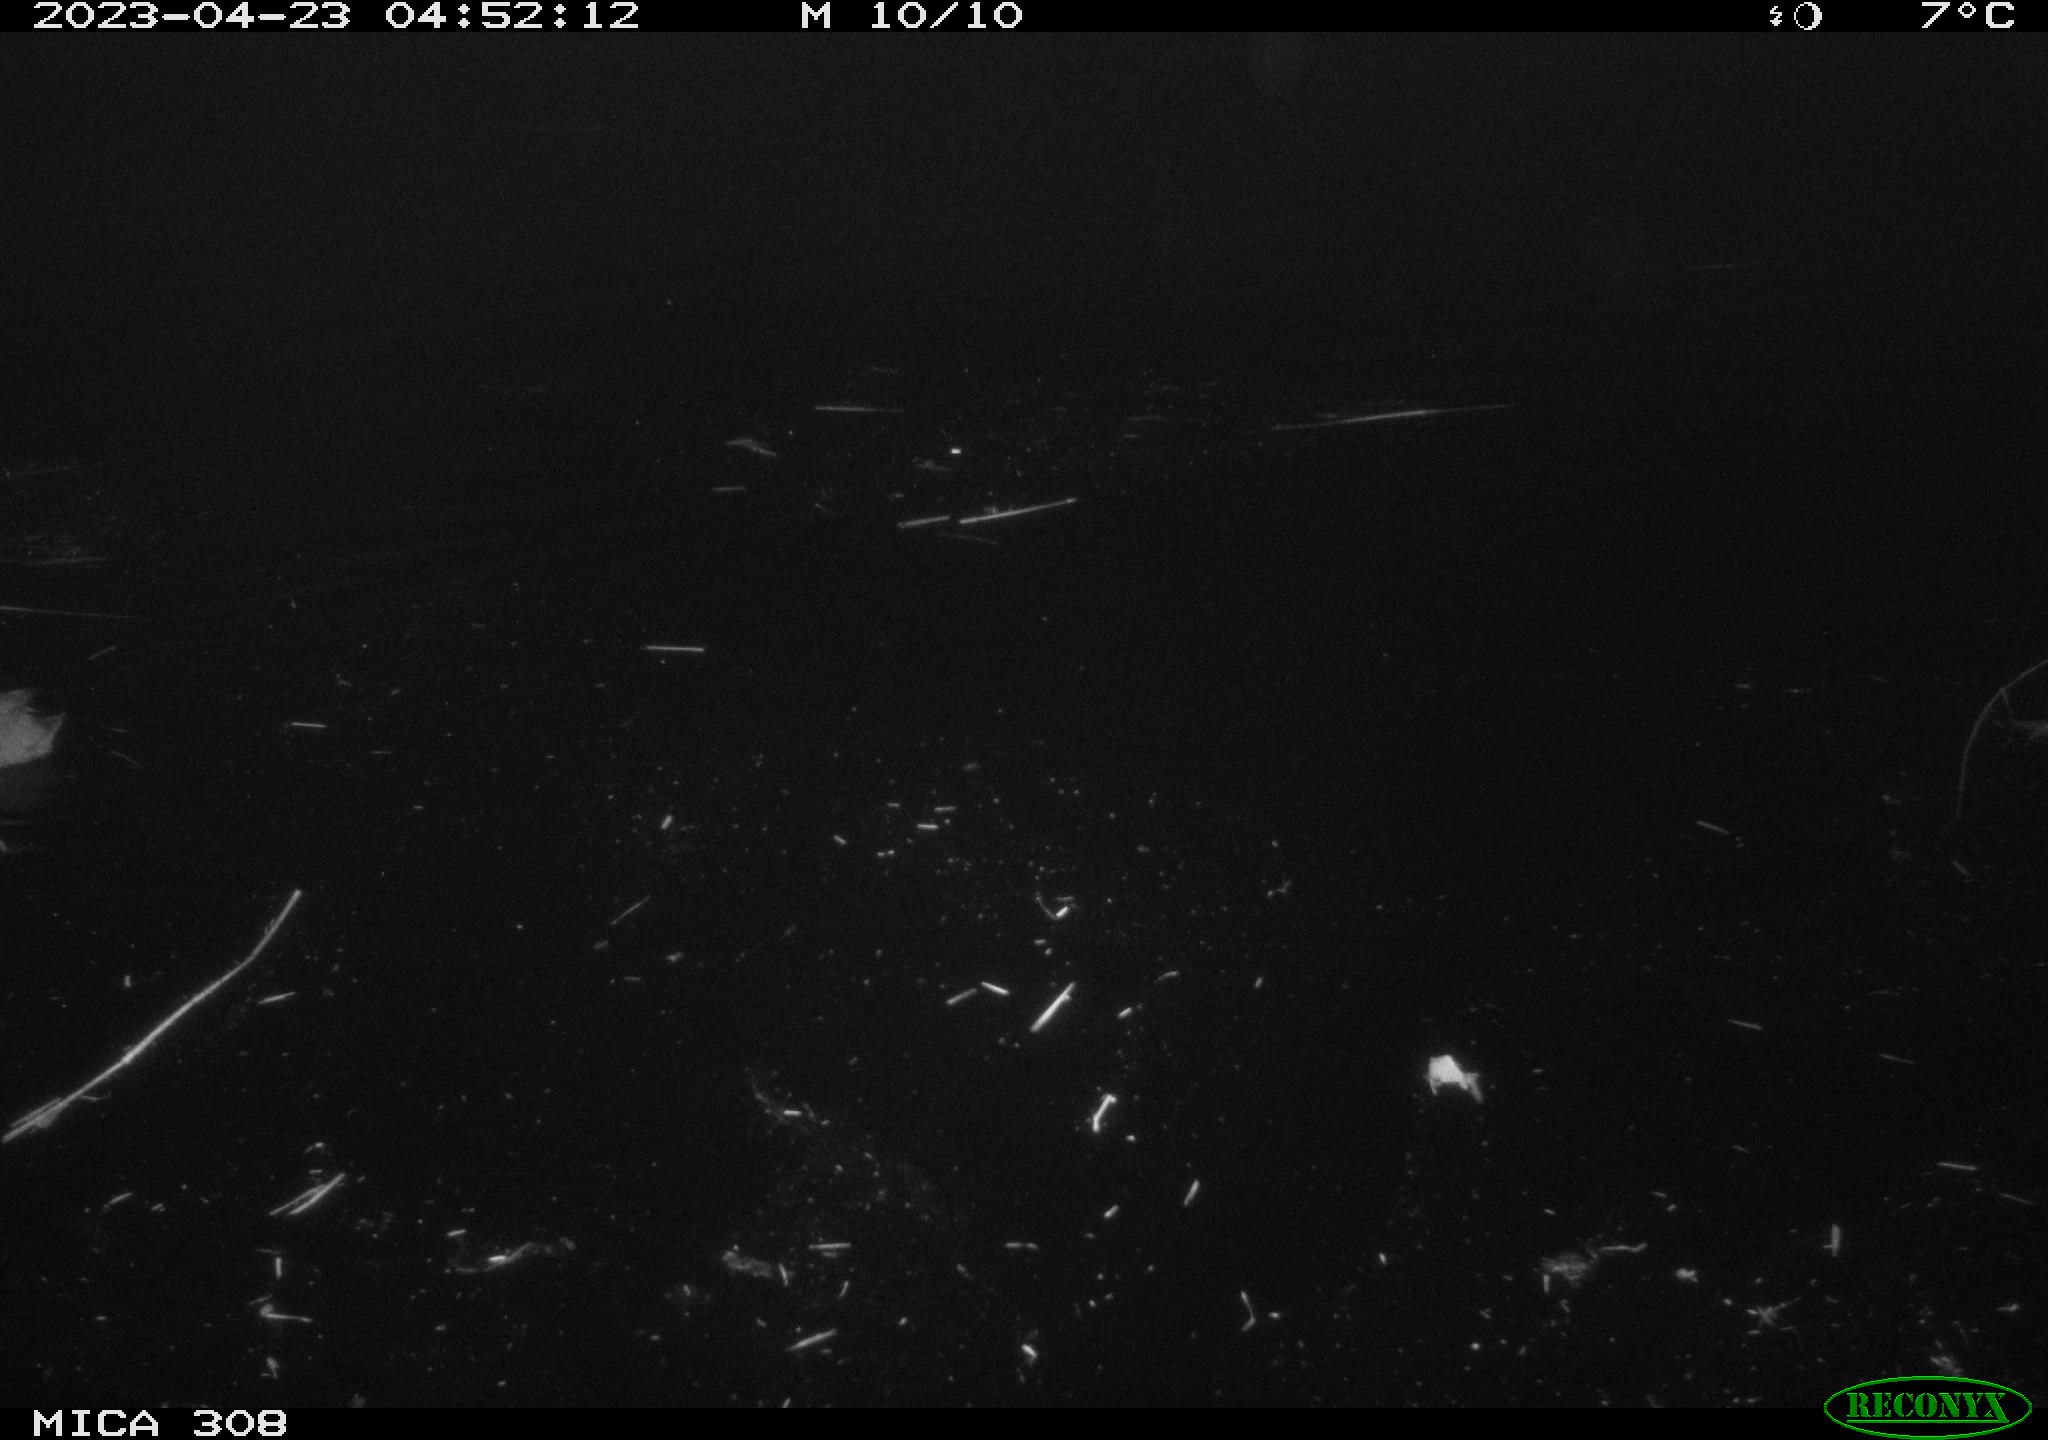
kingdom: Animalia
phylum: Chordata
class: Aves
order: Gruiformes
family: Rallidae
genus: Fulica
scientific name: Fulica atra
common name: Eurasian coot
